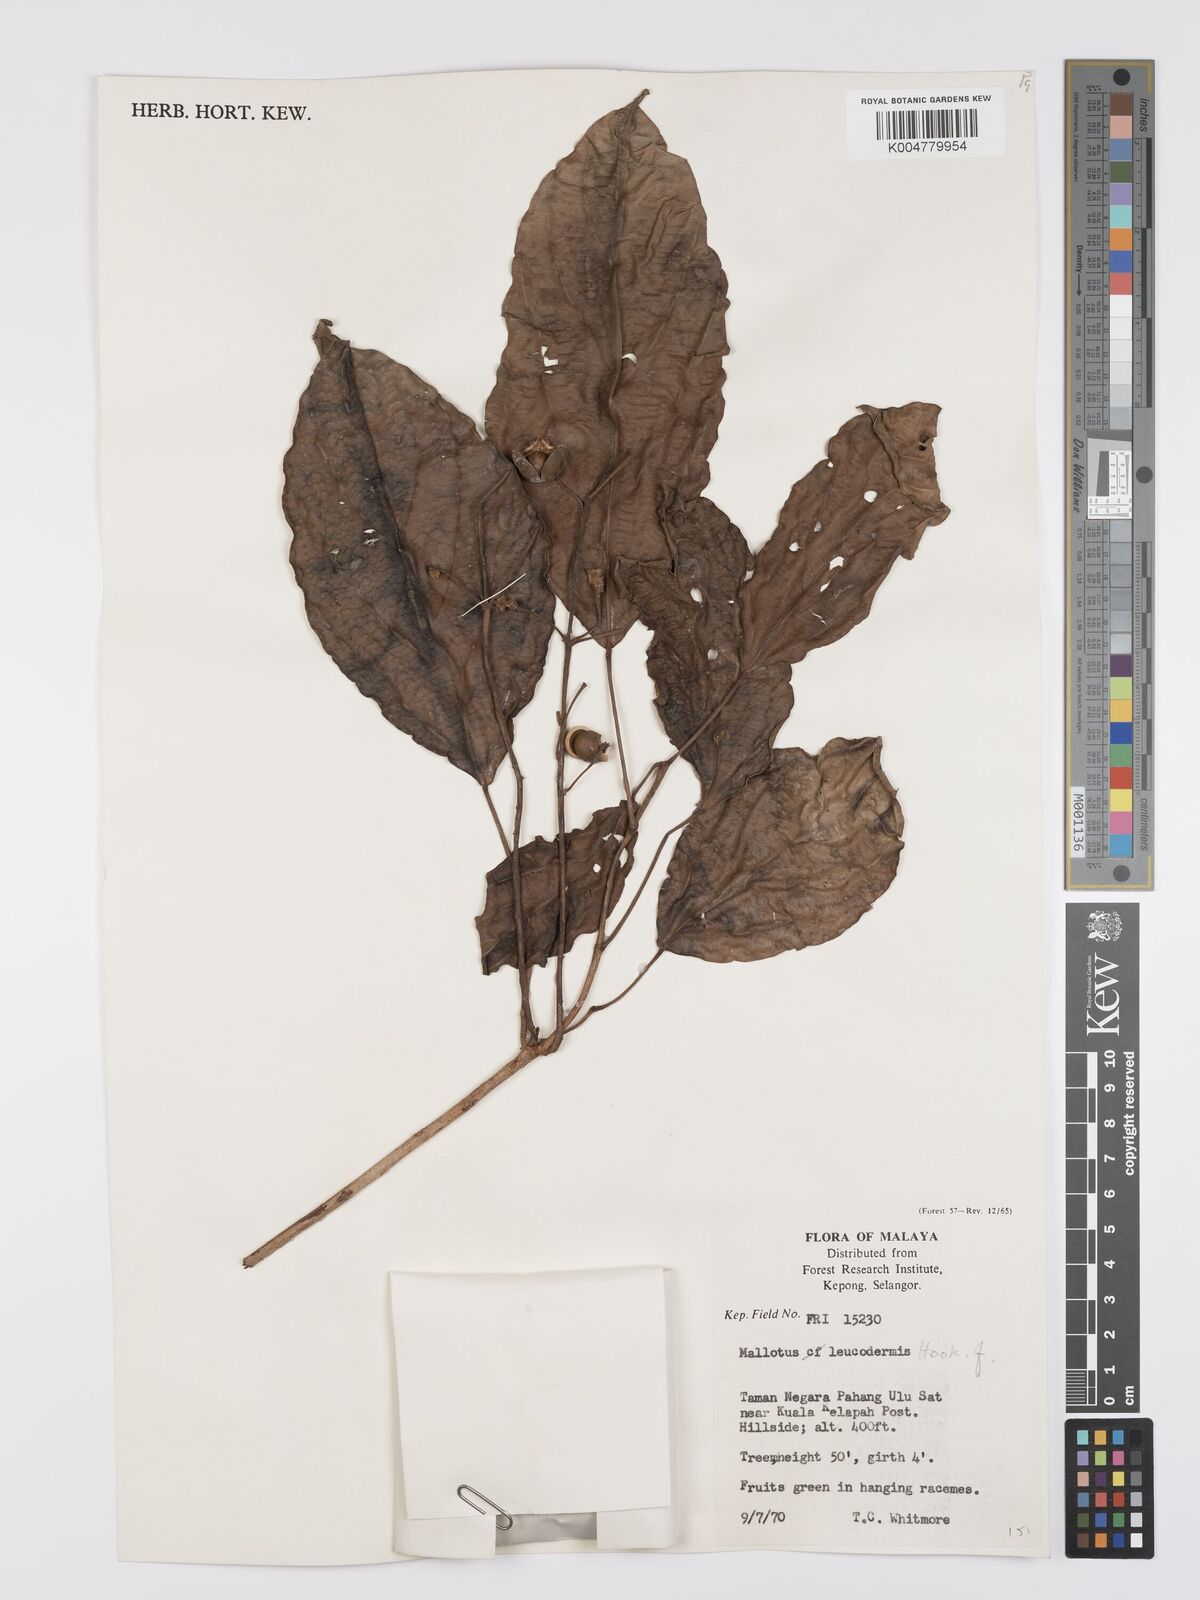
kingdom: Plantae
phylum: Tracheophyta
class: Magnoliopsida
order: Malpighiales
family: Euphorbiaceae
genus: Mallotus
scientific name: Mallotus leucodermis
